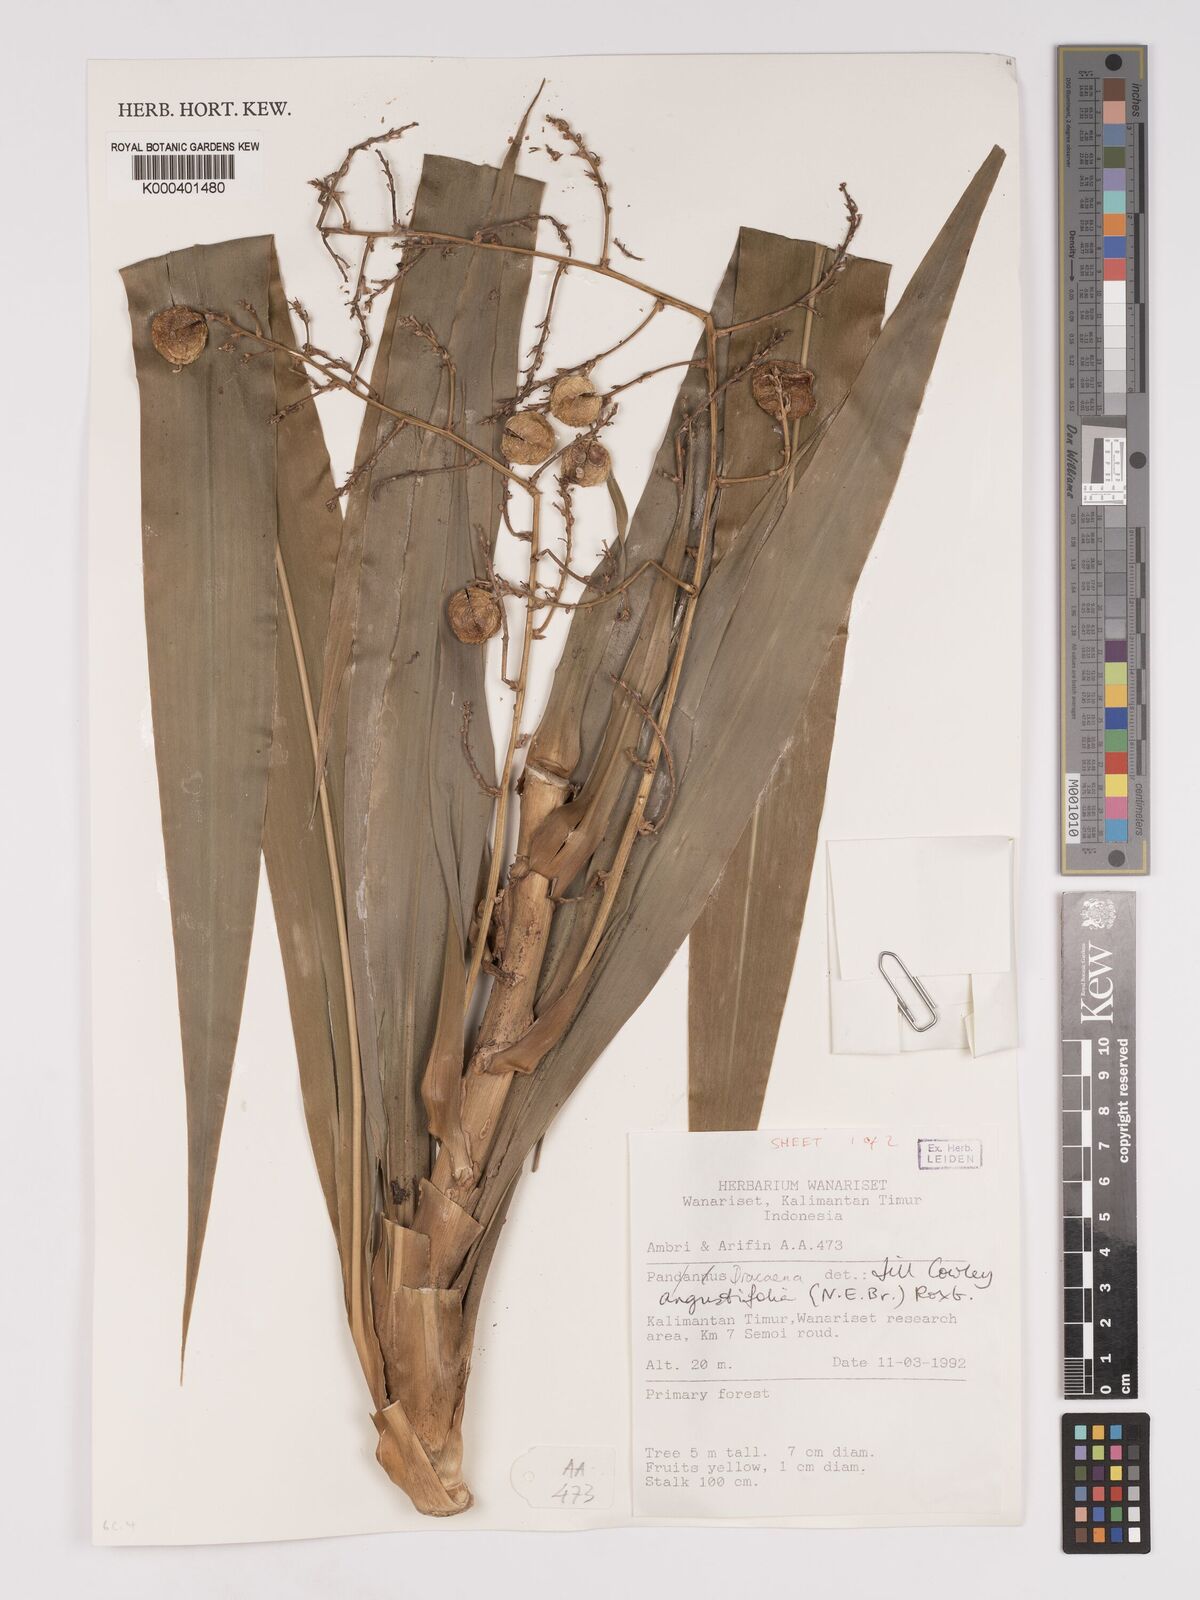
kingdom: Plantae
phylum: Tracheophyta
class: Liliopsida
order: Asparagales
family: Asparagaceae
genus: Dracaena
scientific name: Dracaena angustifolia
